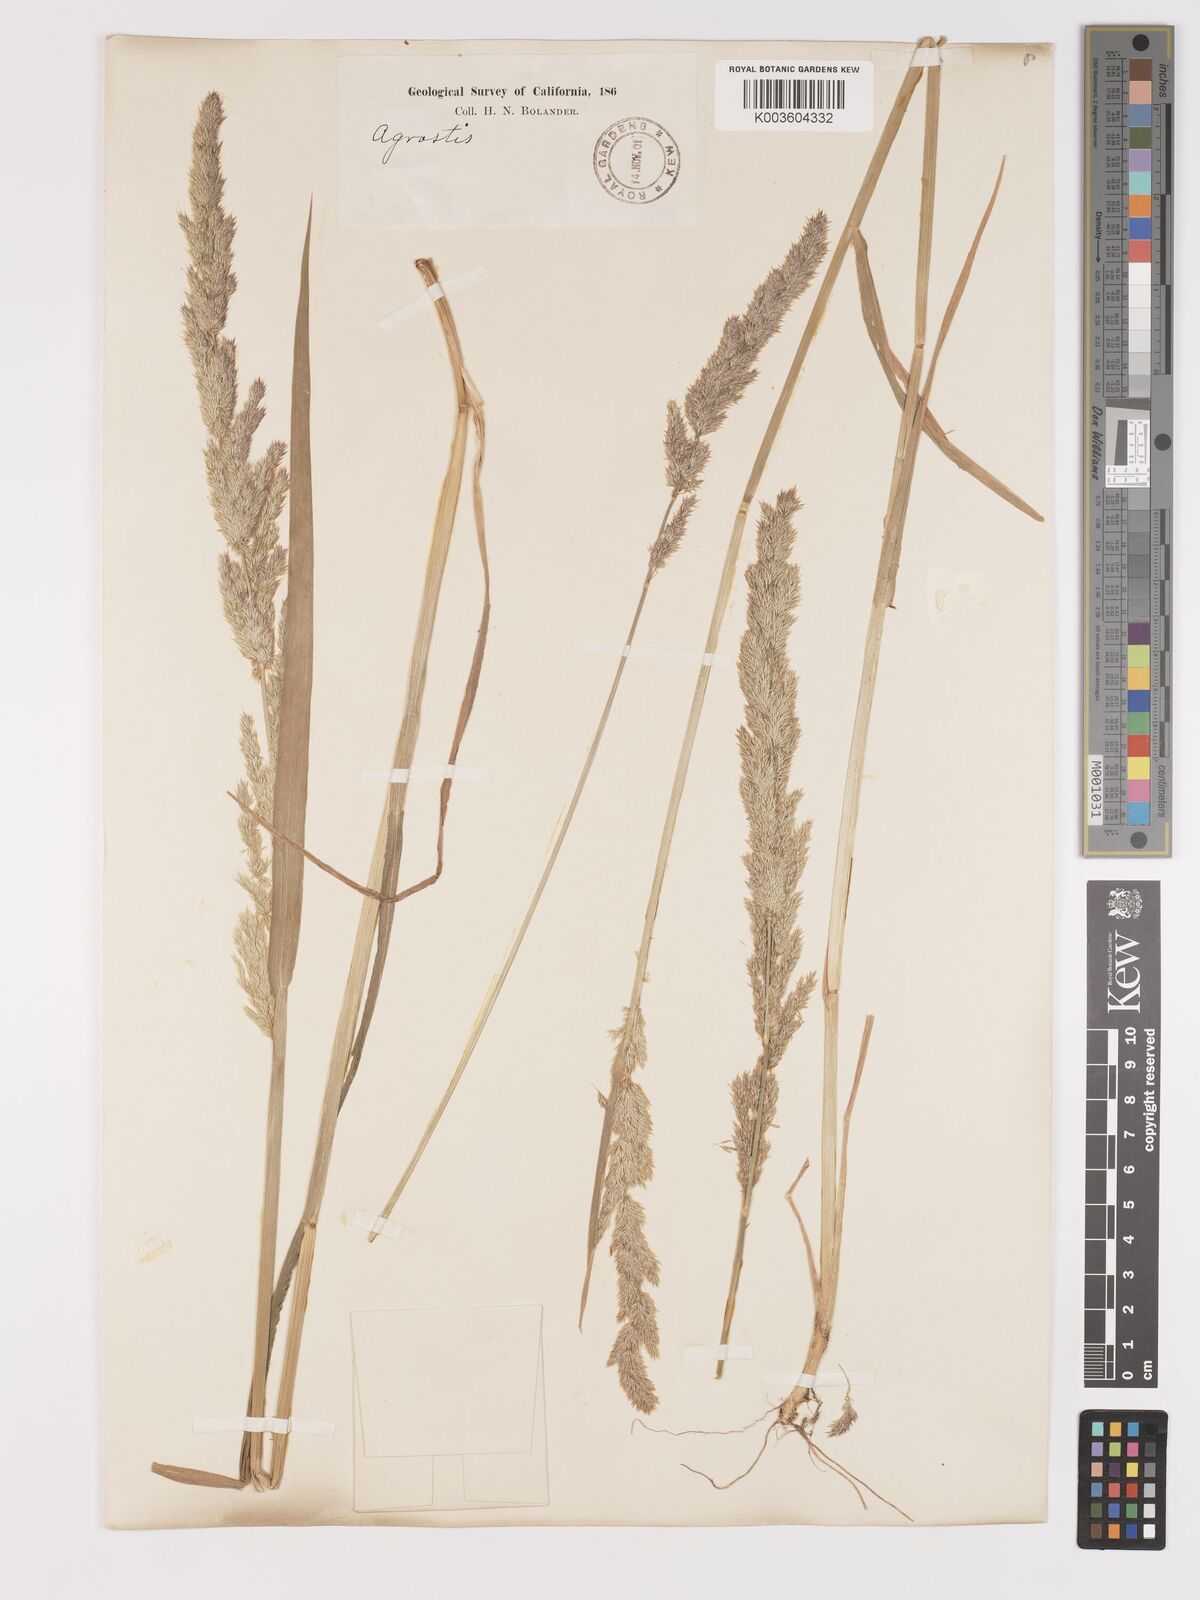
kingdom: Plantae
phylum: Tracheophyta
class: Liliopsida
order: Poales
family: Poaceae
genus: Agrostis
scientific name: Agrostis exarata
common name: Spike bent
